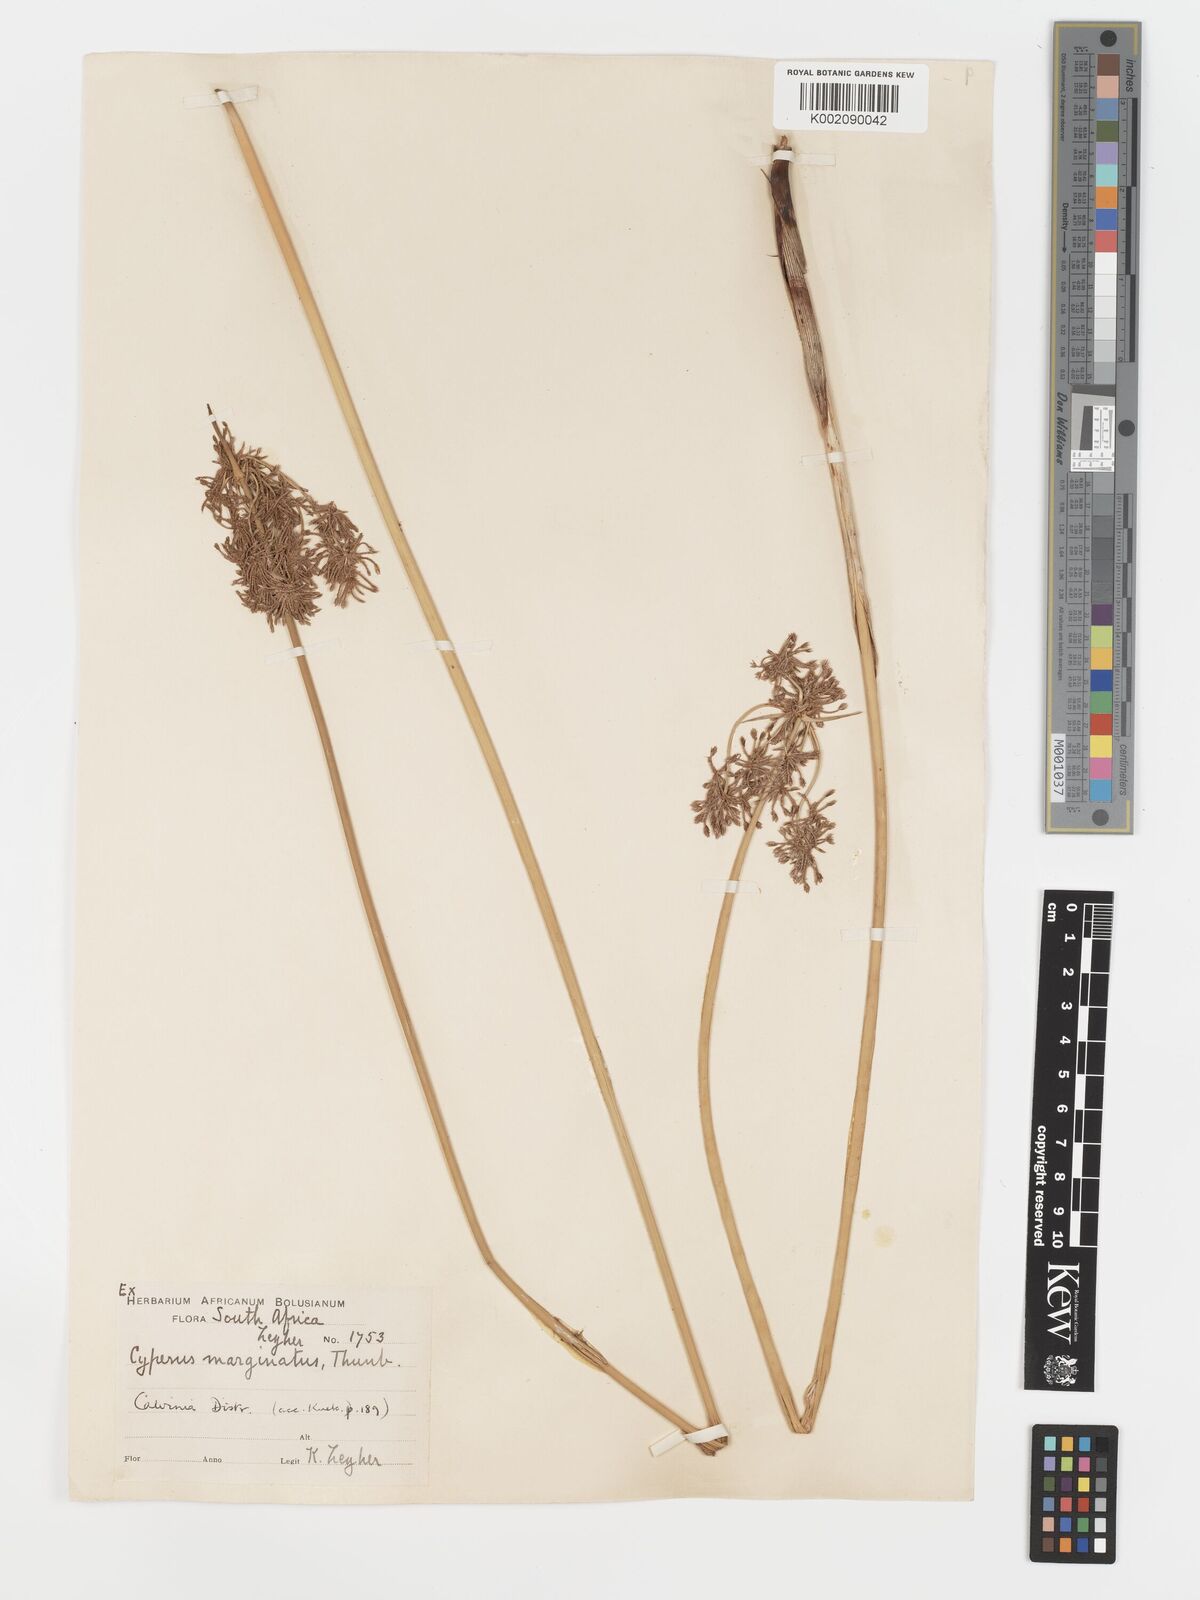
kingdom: Plantae
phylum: Tracheophyta
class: Liliopsida
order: Poales
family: Cyperaceae
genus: Cyperus
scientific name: Cyperus marginatus
